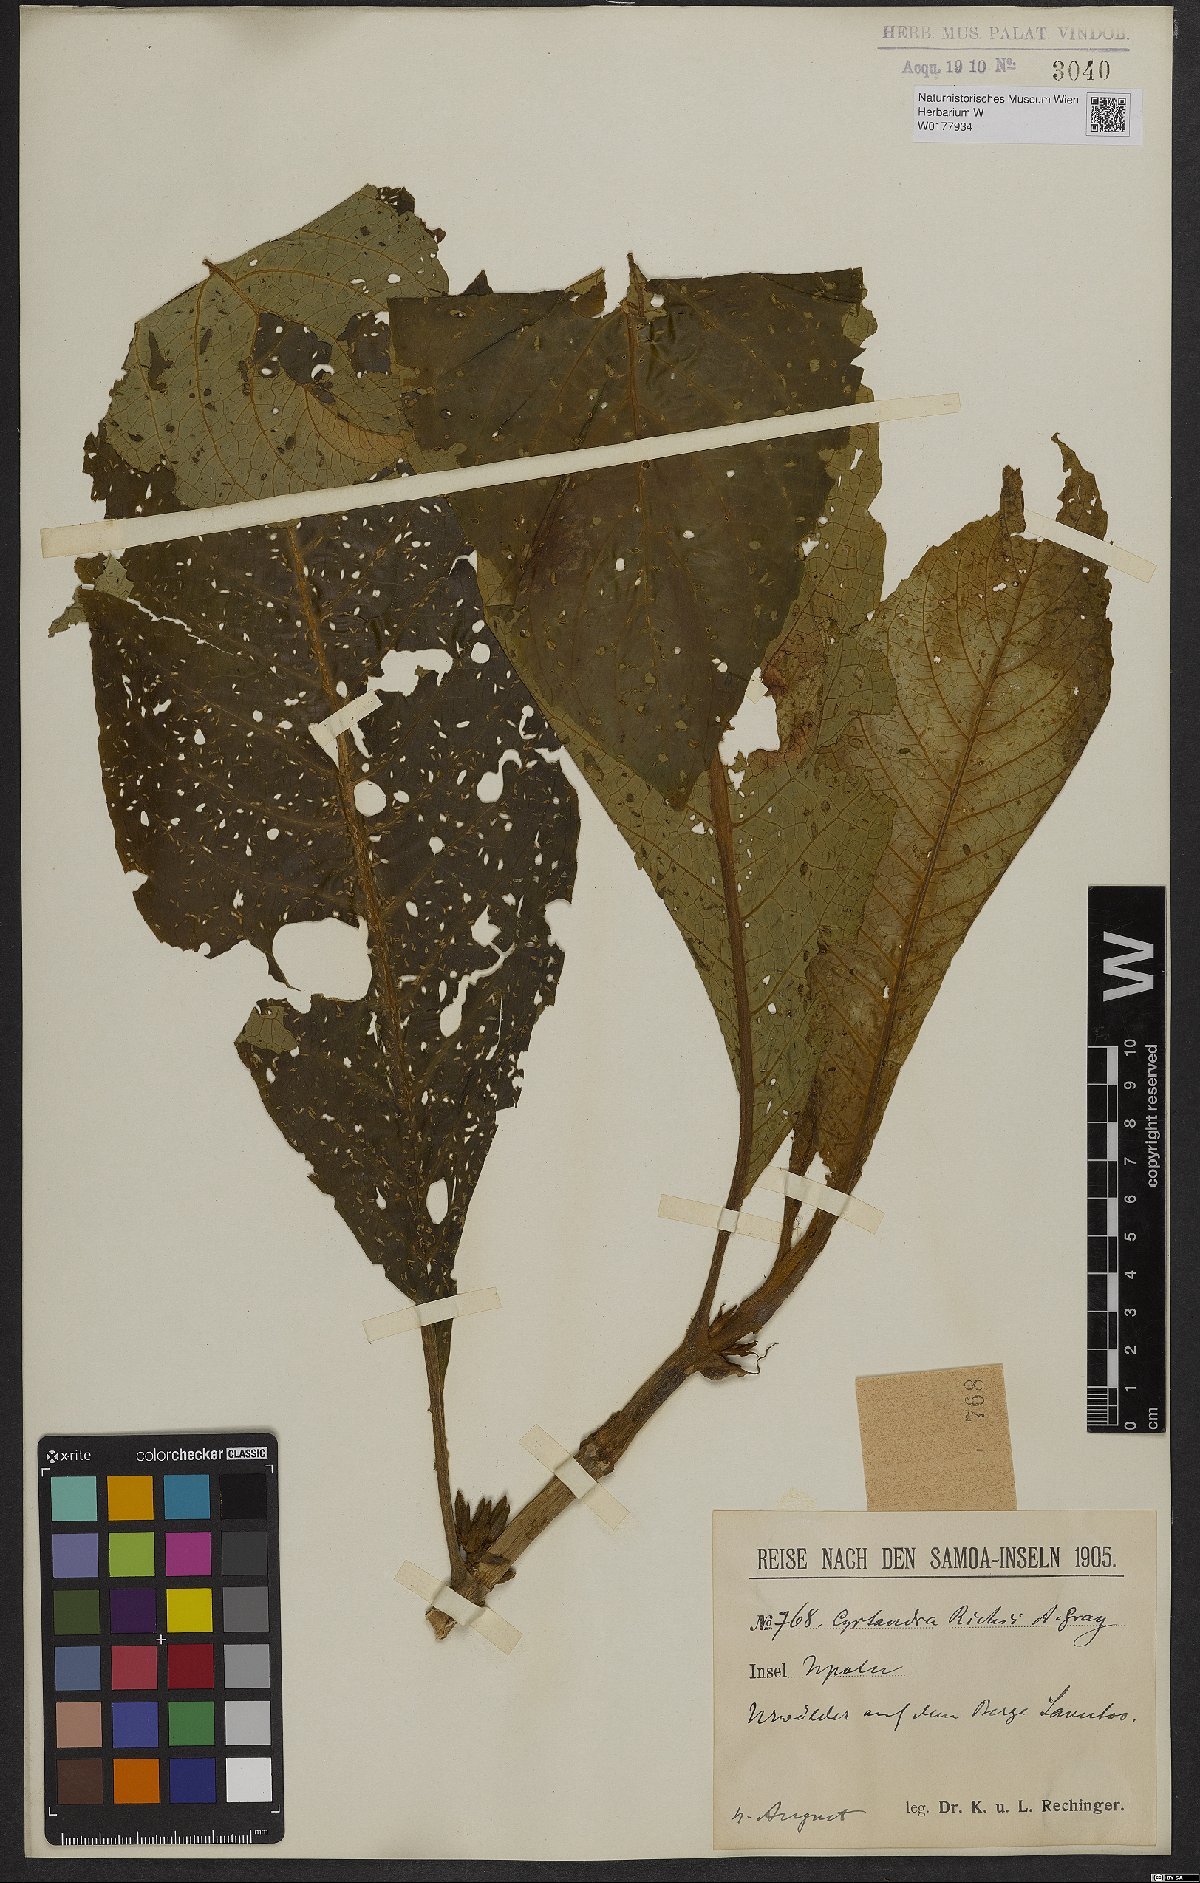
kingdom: Plantae
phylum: Tracheophyta
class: Magnoliopsida
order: Lamiales
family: Gesneriaceae
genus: Cyrtandra
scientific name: Cyrtandra richii
